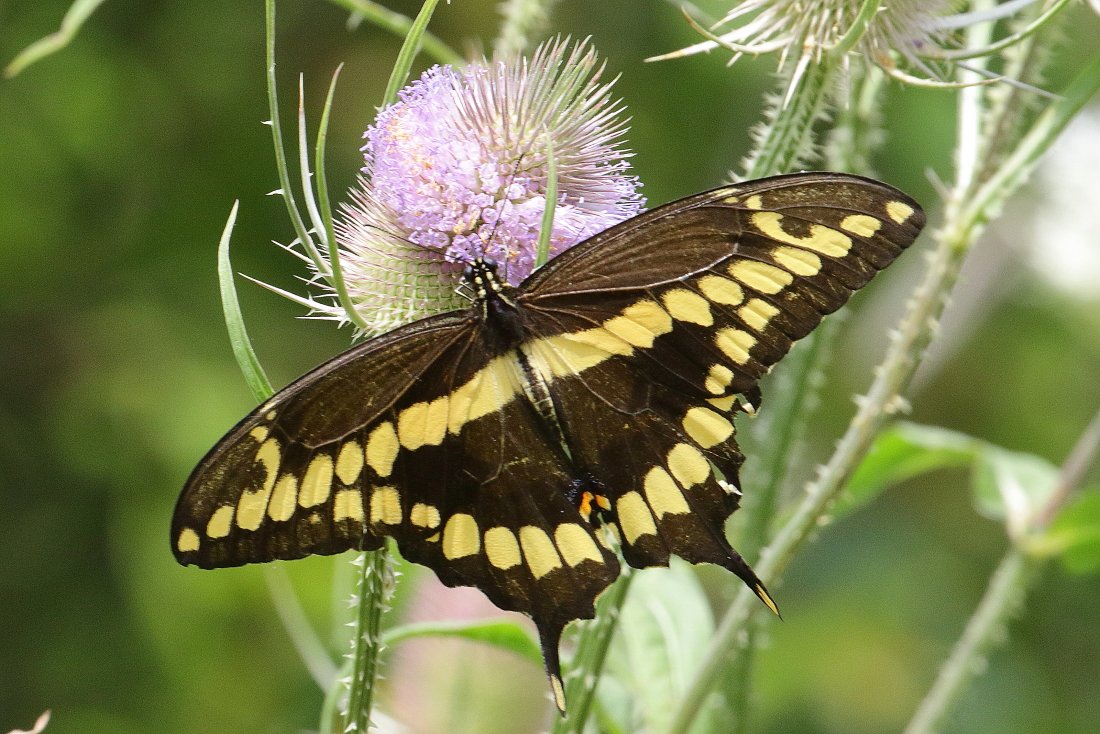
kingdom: Animalia
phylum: Arthropoda
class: Insecta
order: Lepidoptera
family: Papilionidae
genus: Papilio
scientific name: Papilio cresphontes
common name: Eastern Giant Swallowtail
